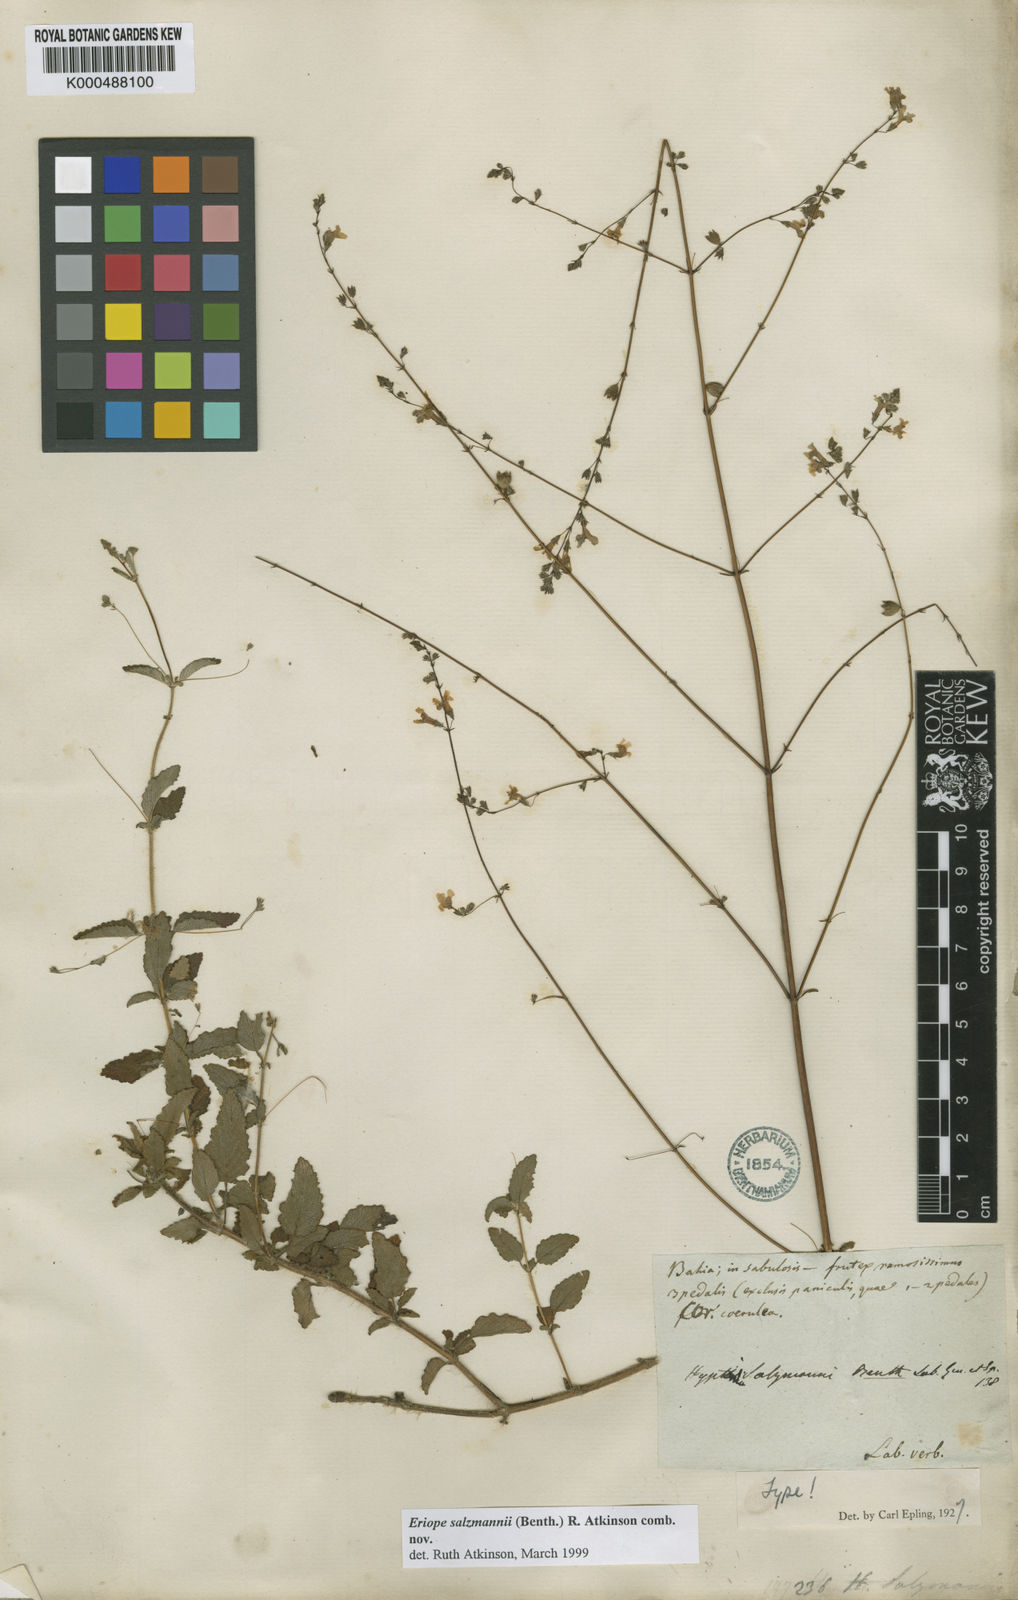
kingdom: Plantae
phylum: Tracheophyta
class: Magnoliopsida
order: Lamiales
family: Lamiaceae
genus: Hypenia
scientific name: Hypenia salzmannii
